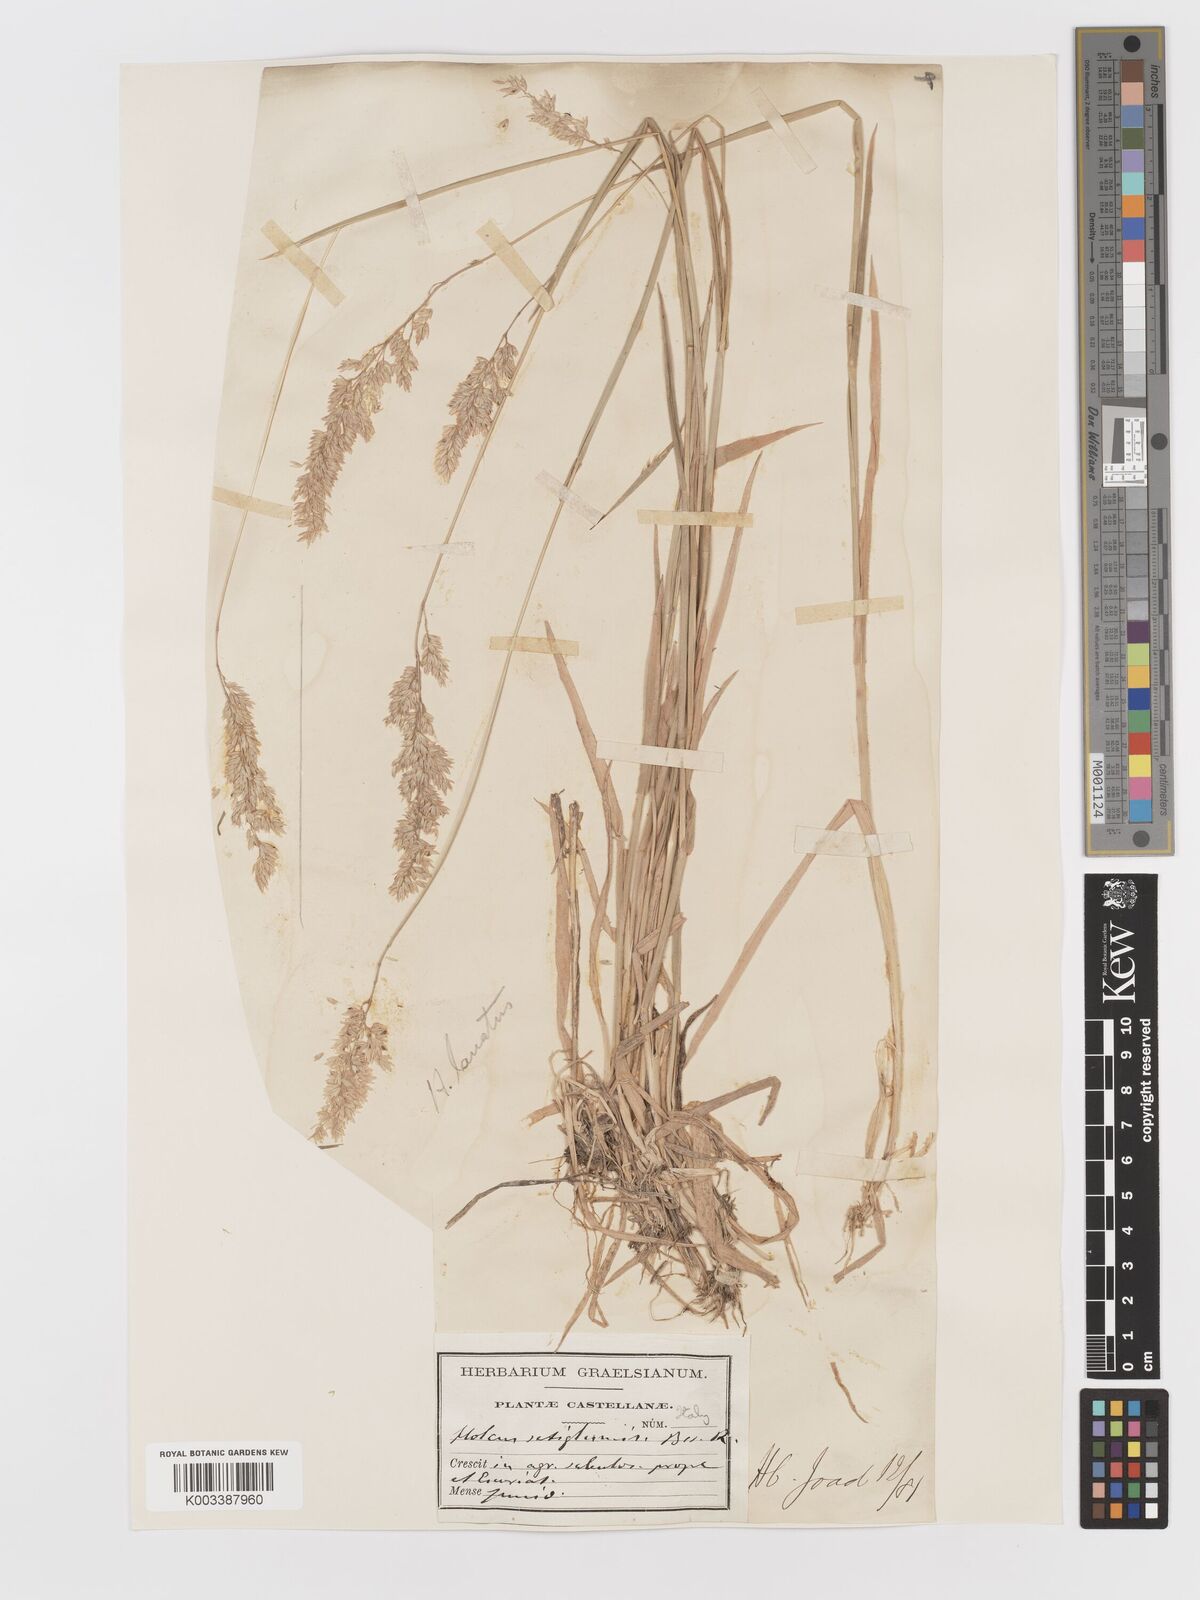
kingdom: Plantae
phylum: Tracheophyta
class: Liliopsida
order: Poales
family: Poaceae
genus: Holcus
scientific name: Holcus lanatus
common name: Yorkshire-fog
